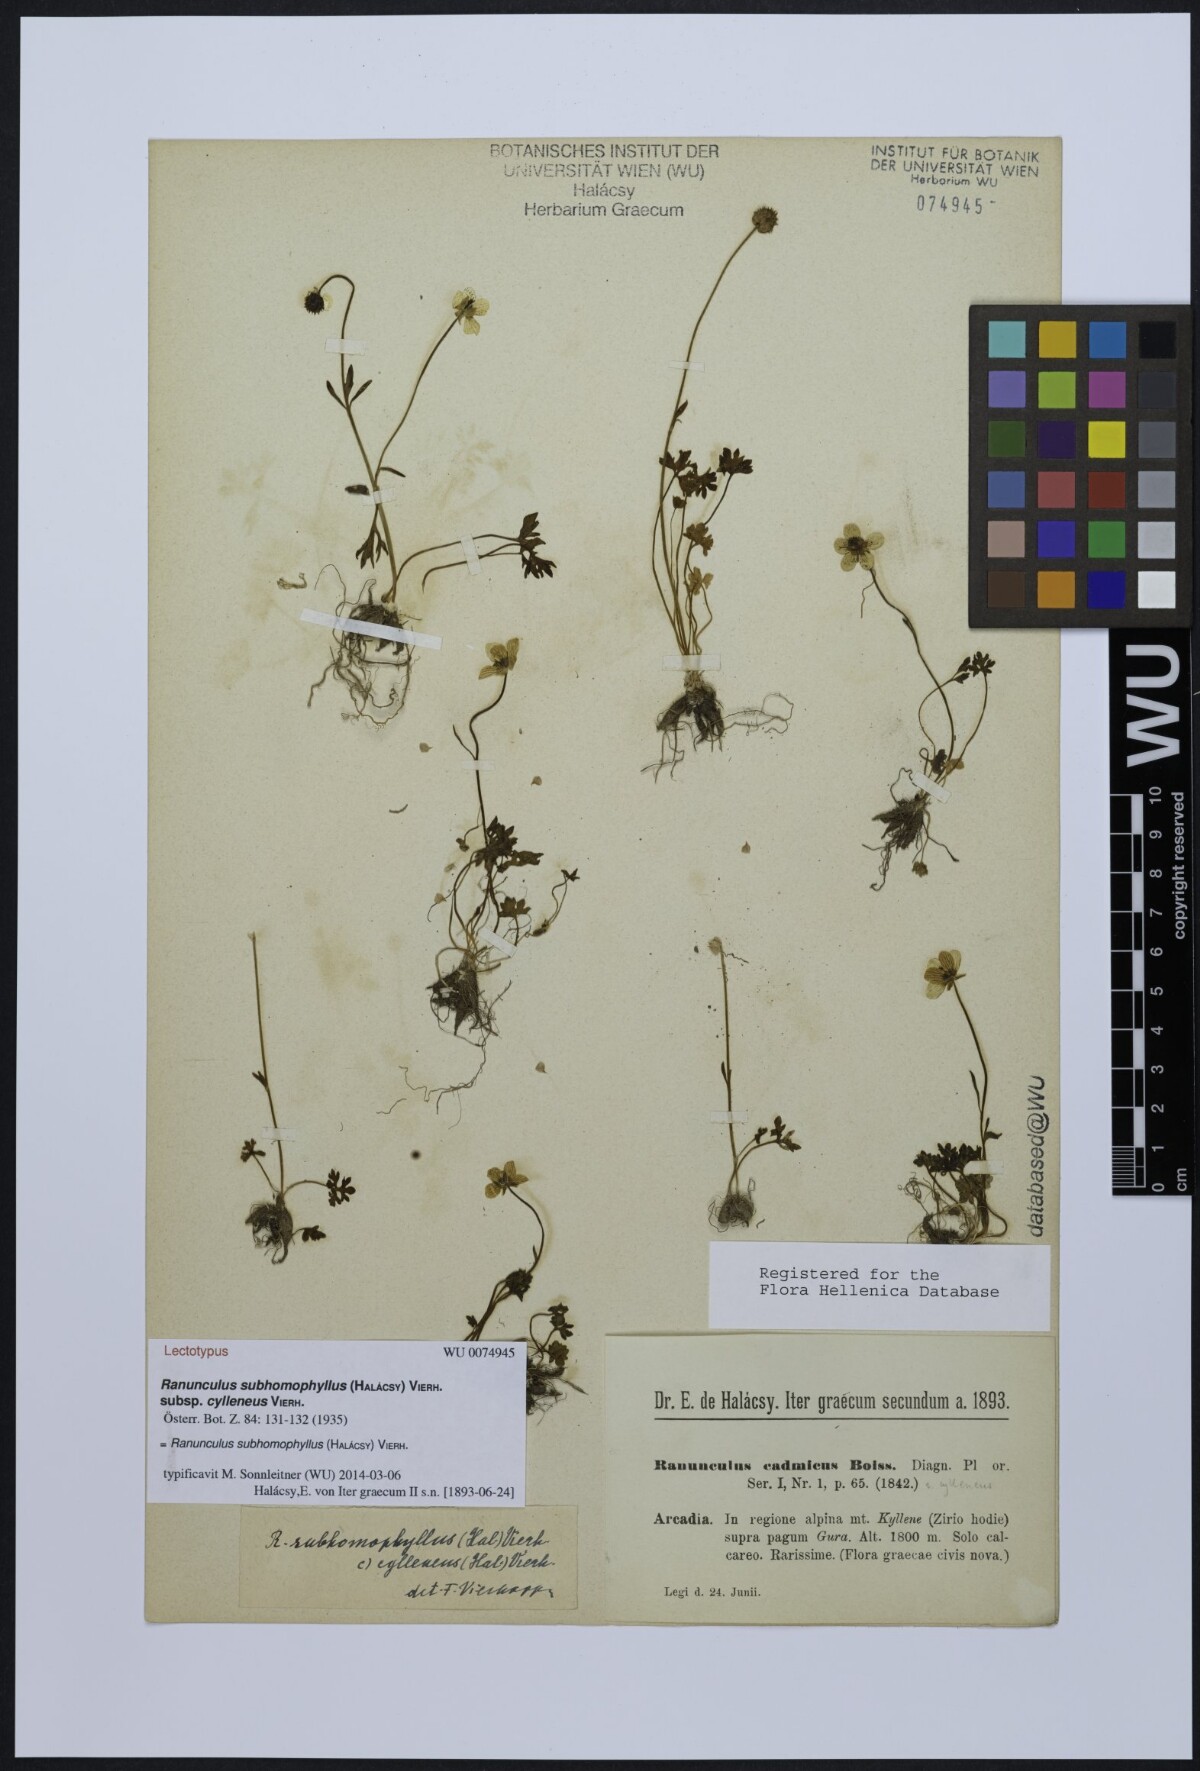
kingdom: Plantae
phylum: Tracheophyta
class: Magnoliopsida
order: Ranunculales
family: Ranunculaceae
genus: Ranunculus
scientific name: Ranunculus subhomophyllus
